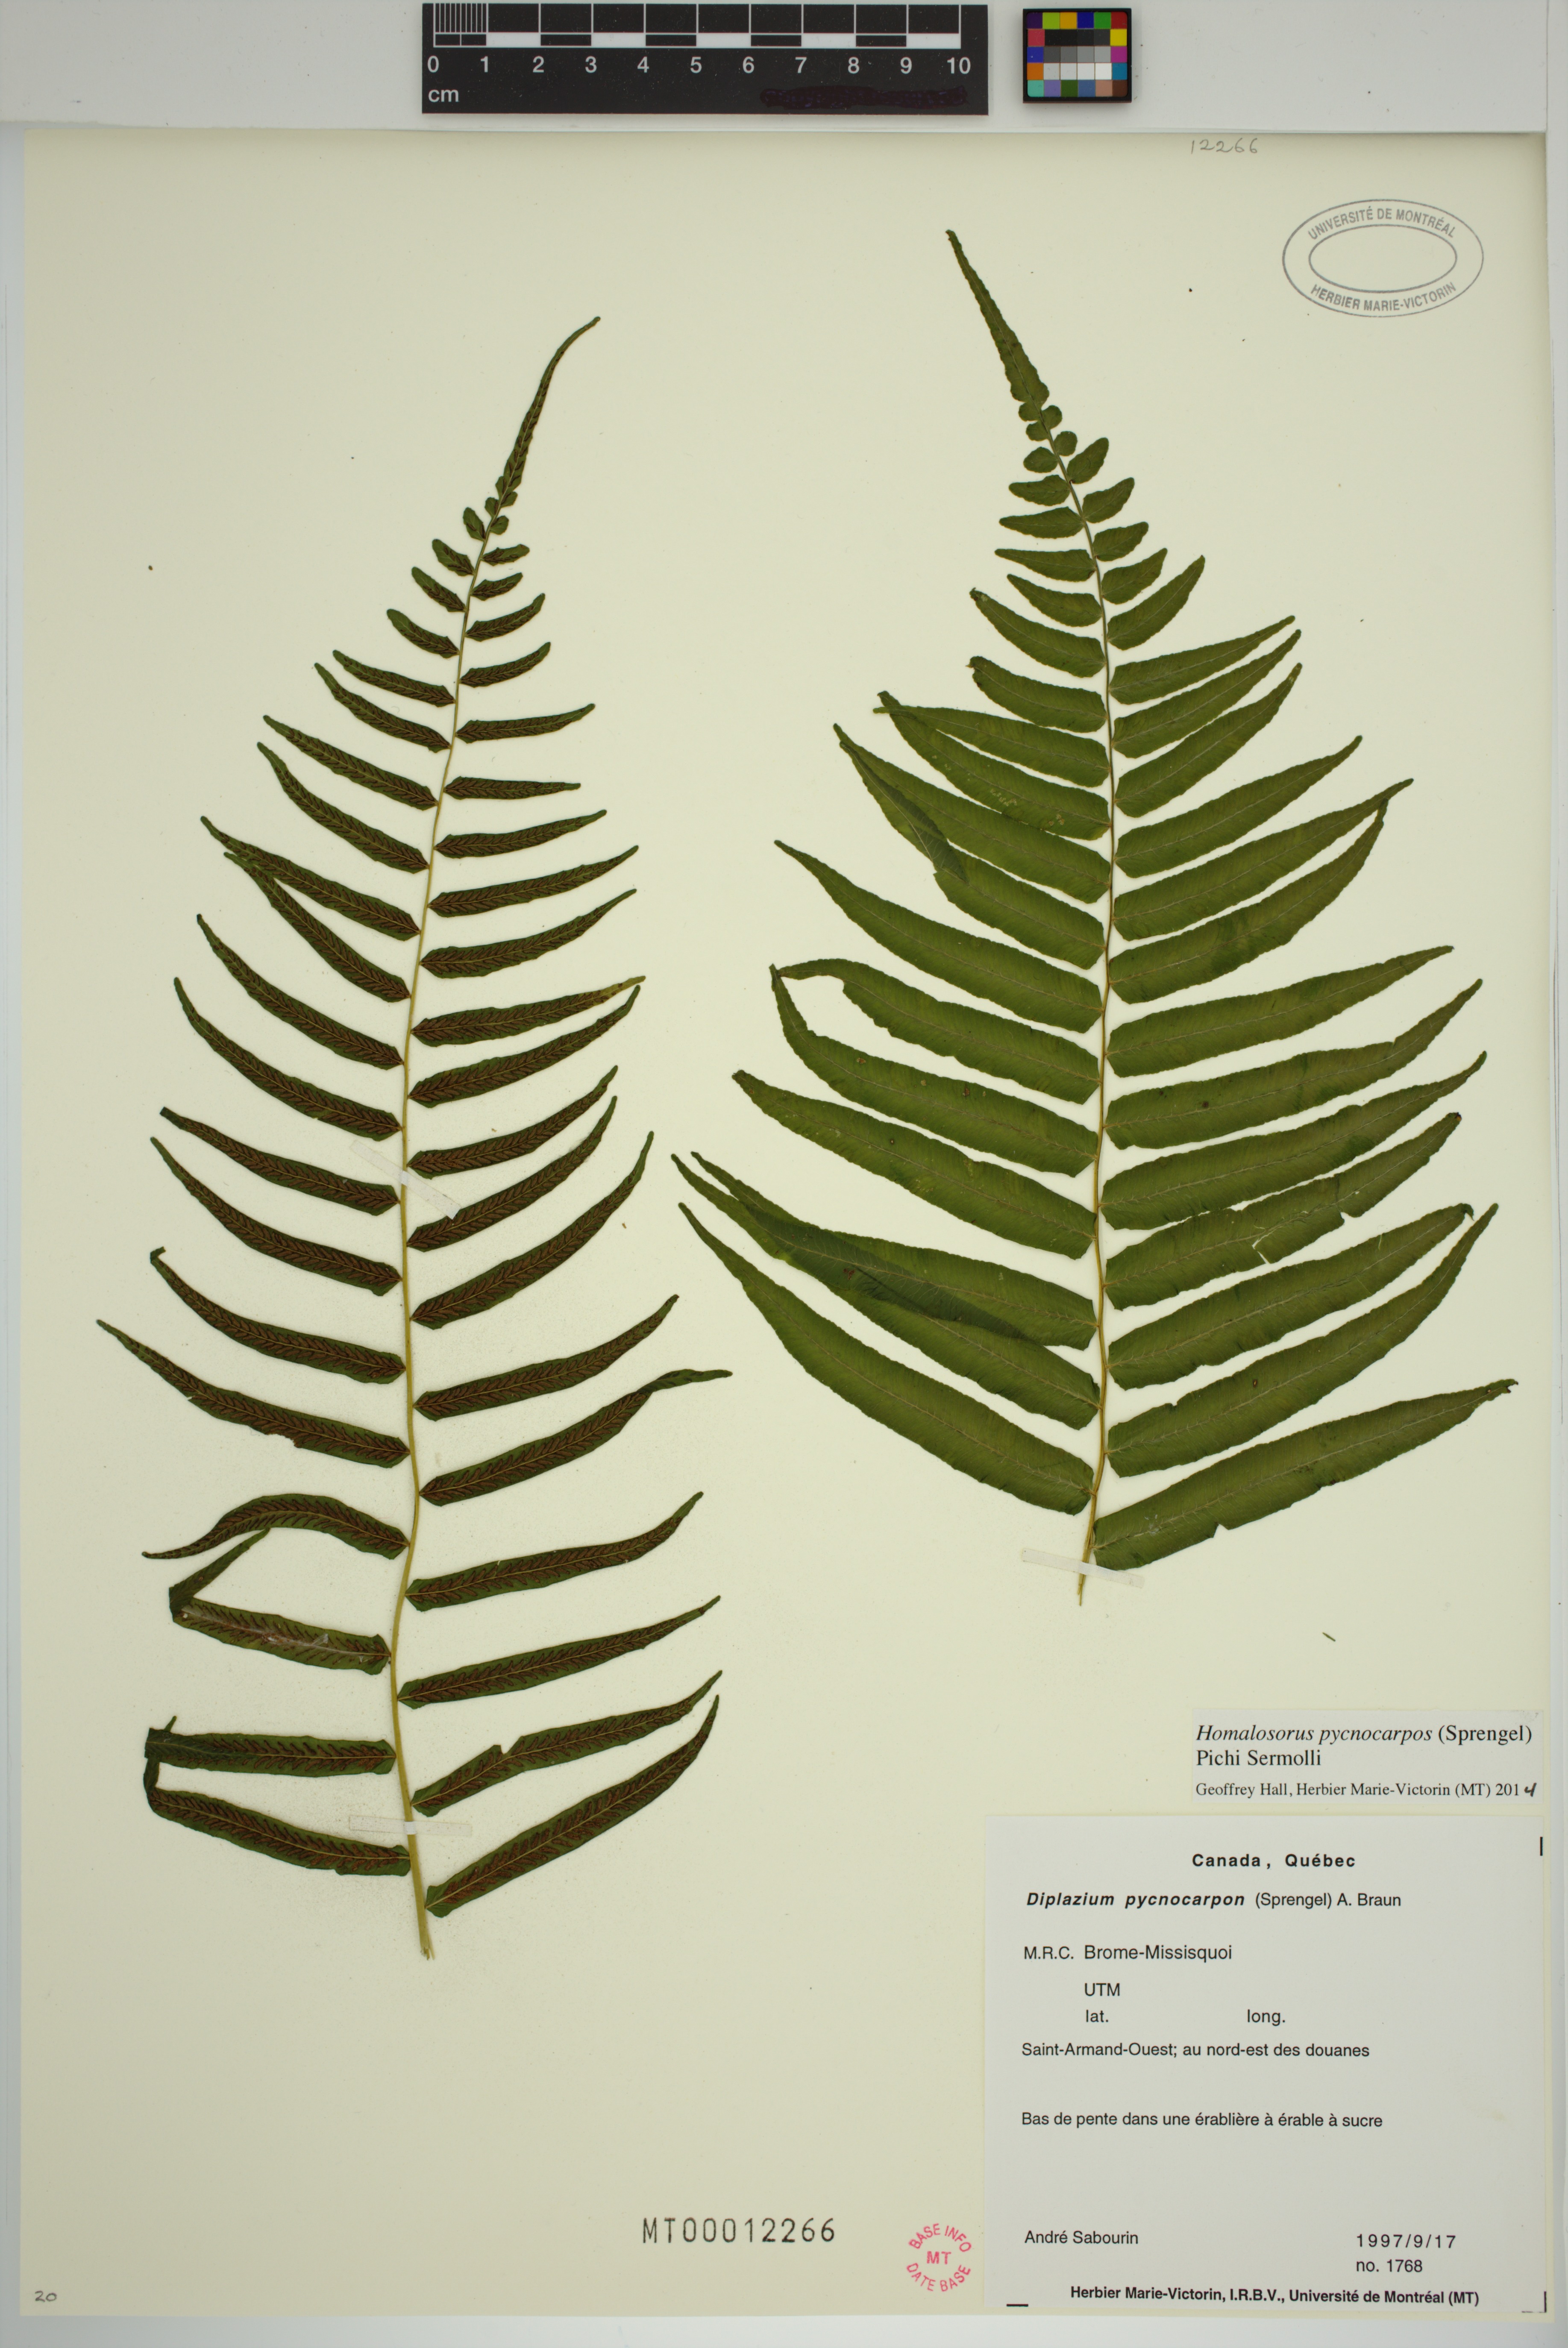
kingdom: Plantae
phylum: Tracheophyta
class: Polypodiopsida
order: Polypodiales
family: Diplaziopsidaceae
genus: Homalosorus
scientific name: Homalosorus pycnocarpos
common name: Glade fern
